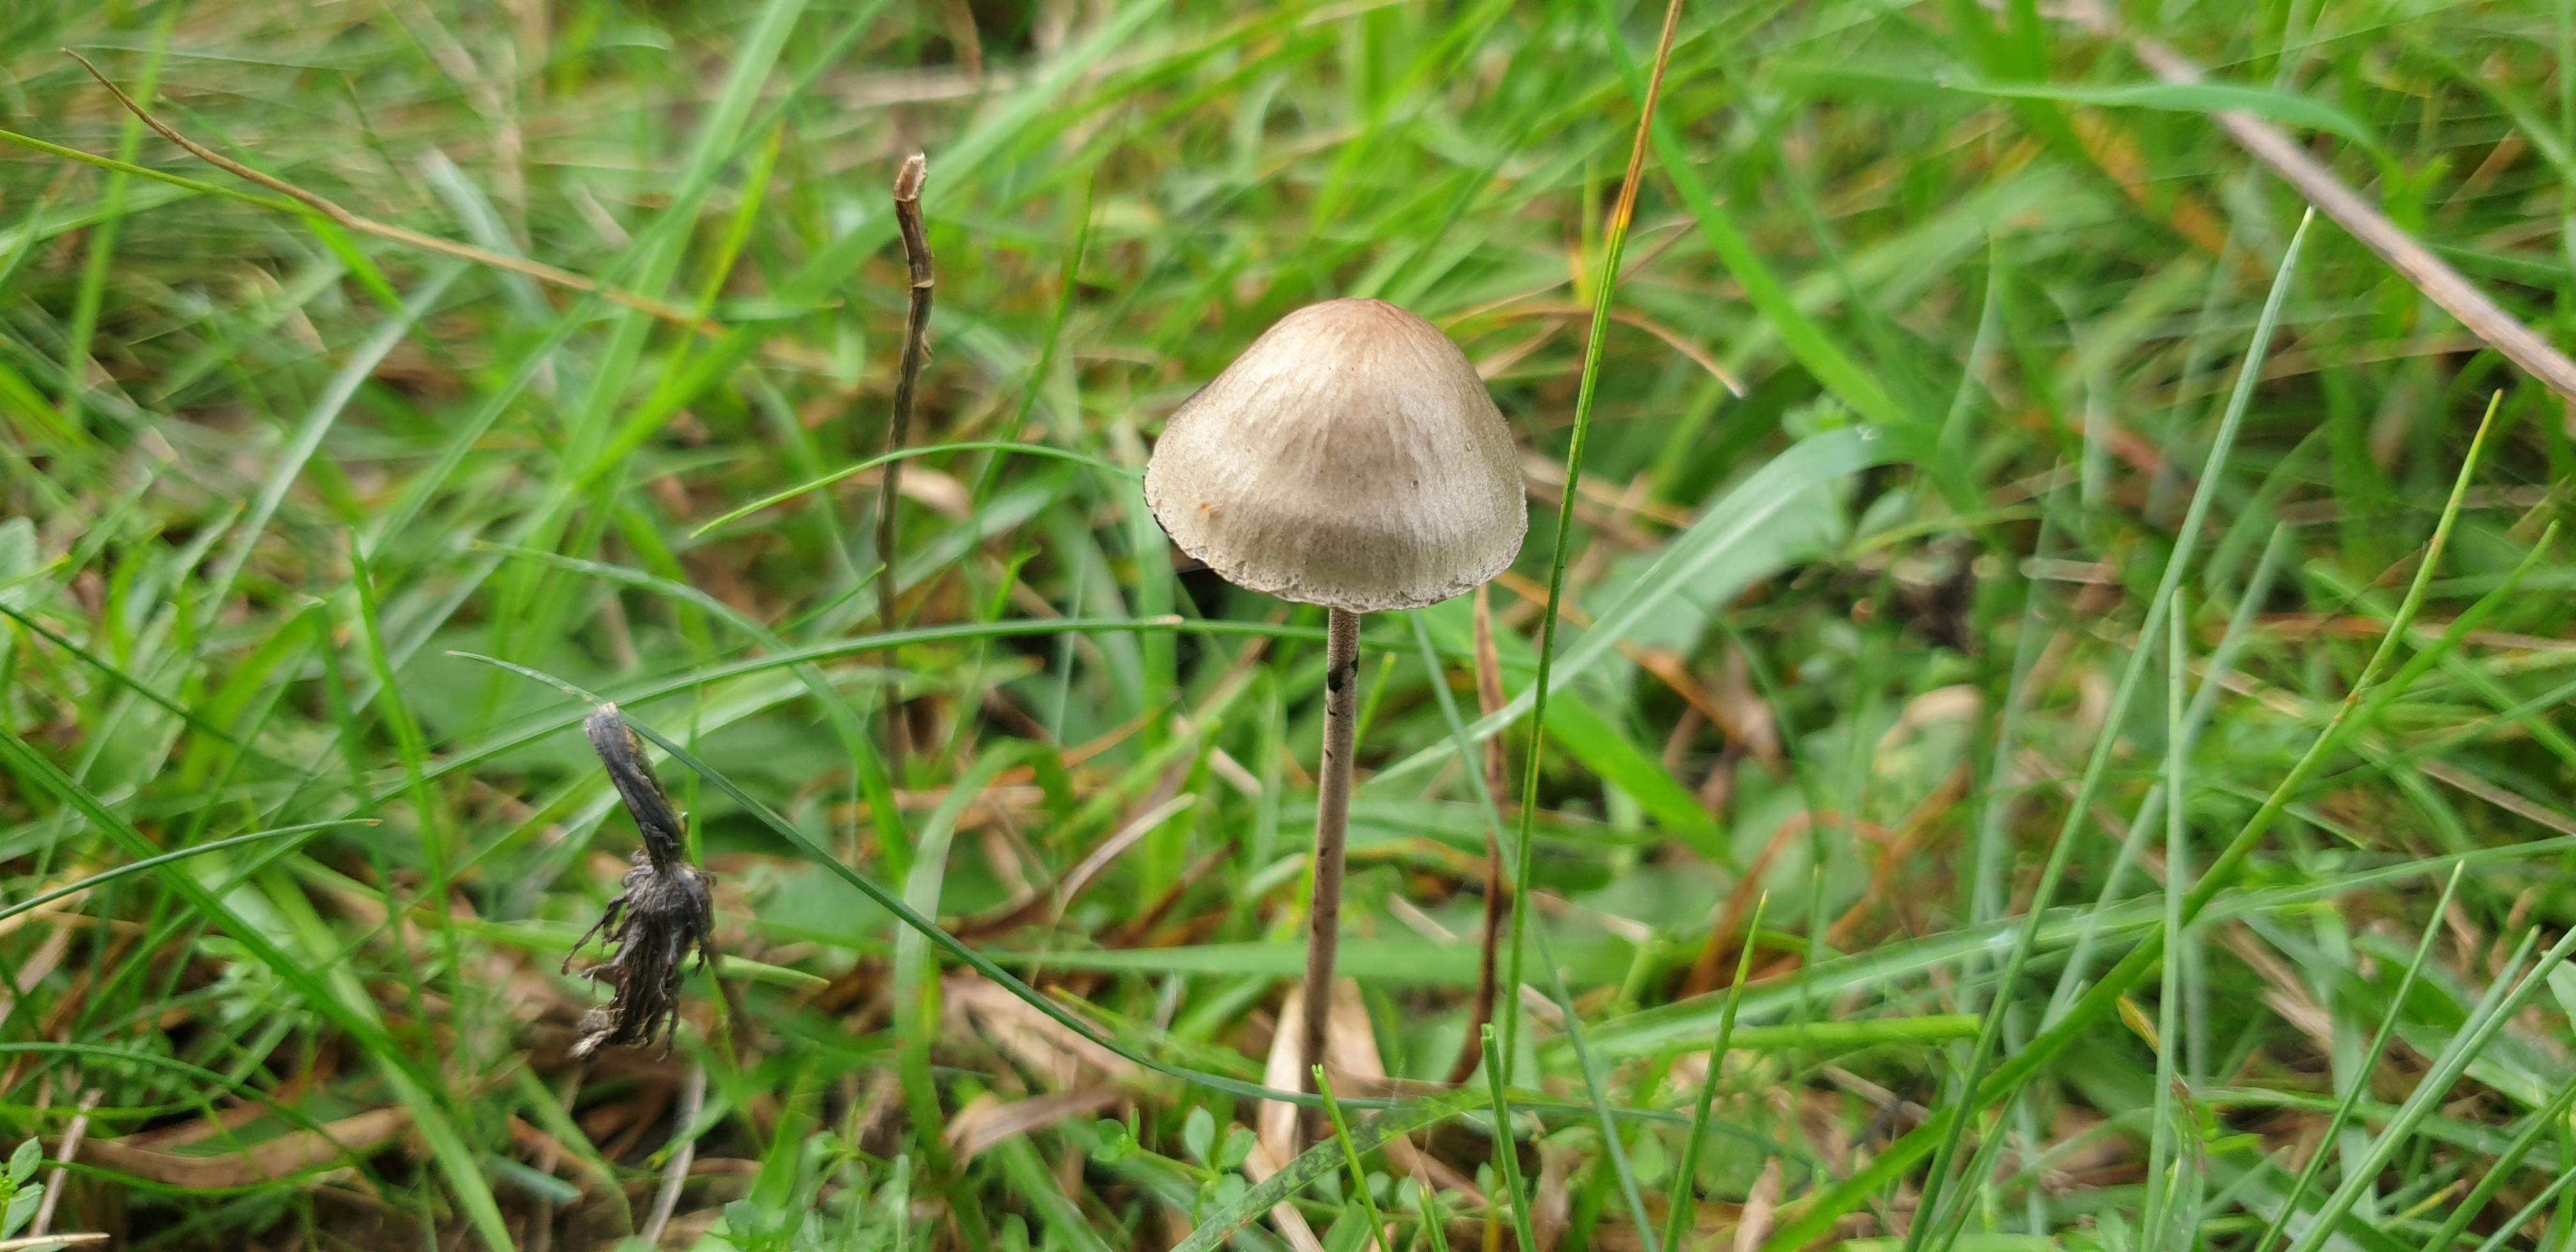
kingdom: Fungi
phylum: Basidiomycota
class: Agaricomycetes
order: Agaricales
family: Bolbitiaceae
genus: Panaeolus
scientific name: Panaeolus papilionaceus
